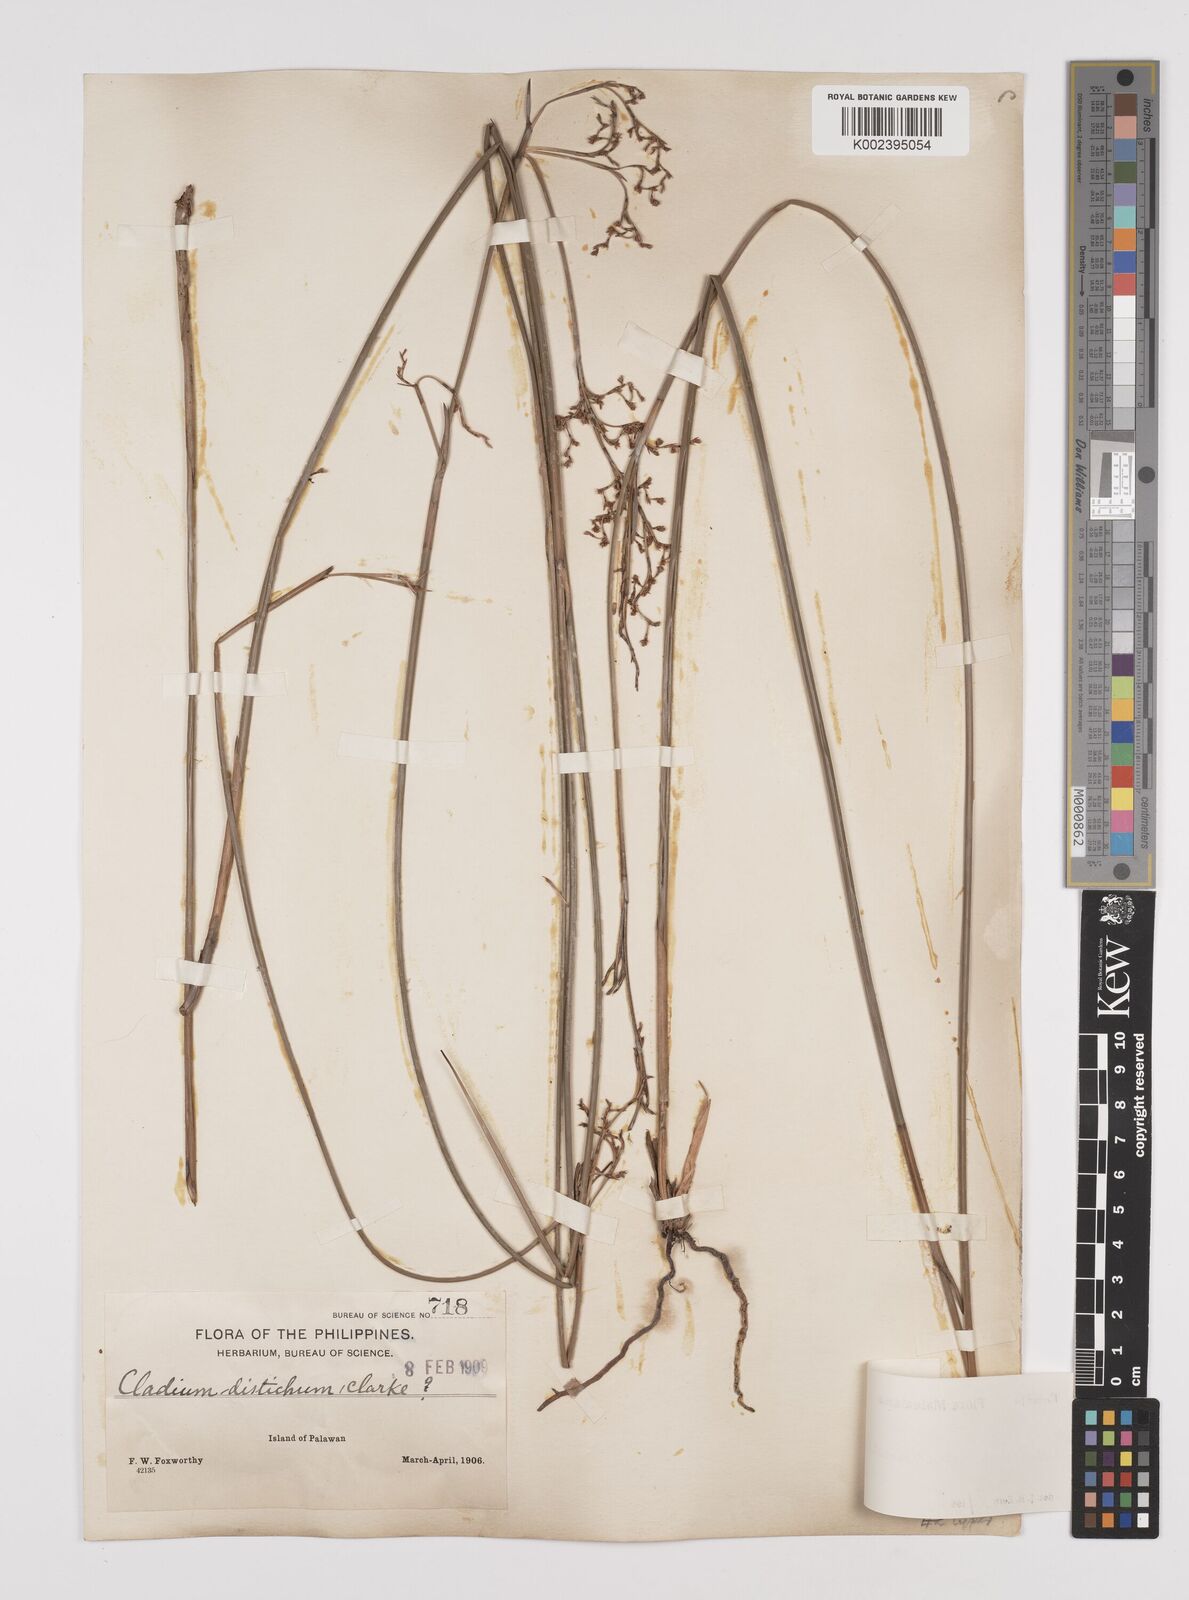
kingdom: Plantae
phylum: Tracheophyta
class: Liliopsida
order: Poales
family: Cyperaceae
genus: Machaerina
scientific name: Machaerina disticha
